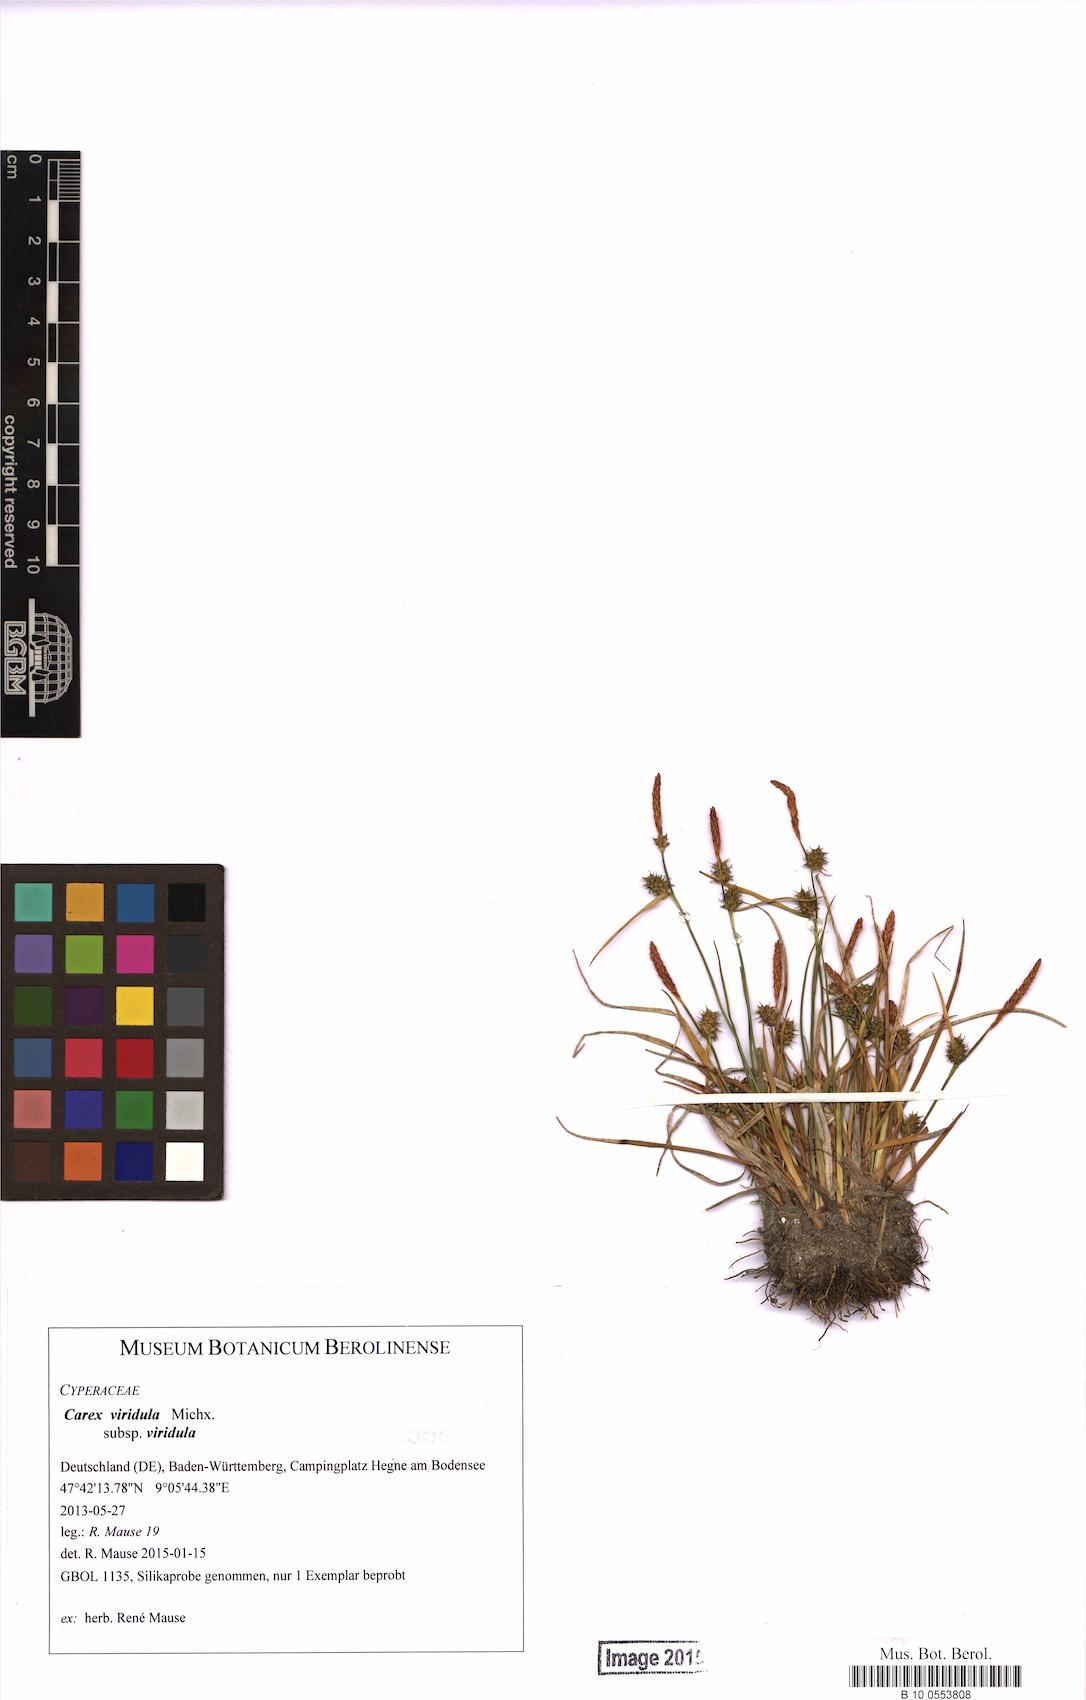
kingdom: Plantae
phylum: Tracheophyta
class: Liliopsida
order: Poales
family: Cyperaceae
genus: Carex
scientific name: Carex oederi
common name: Common & small-fruited yellow-sedge
